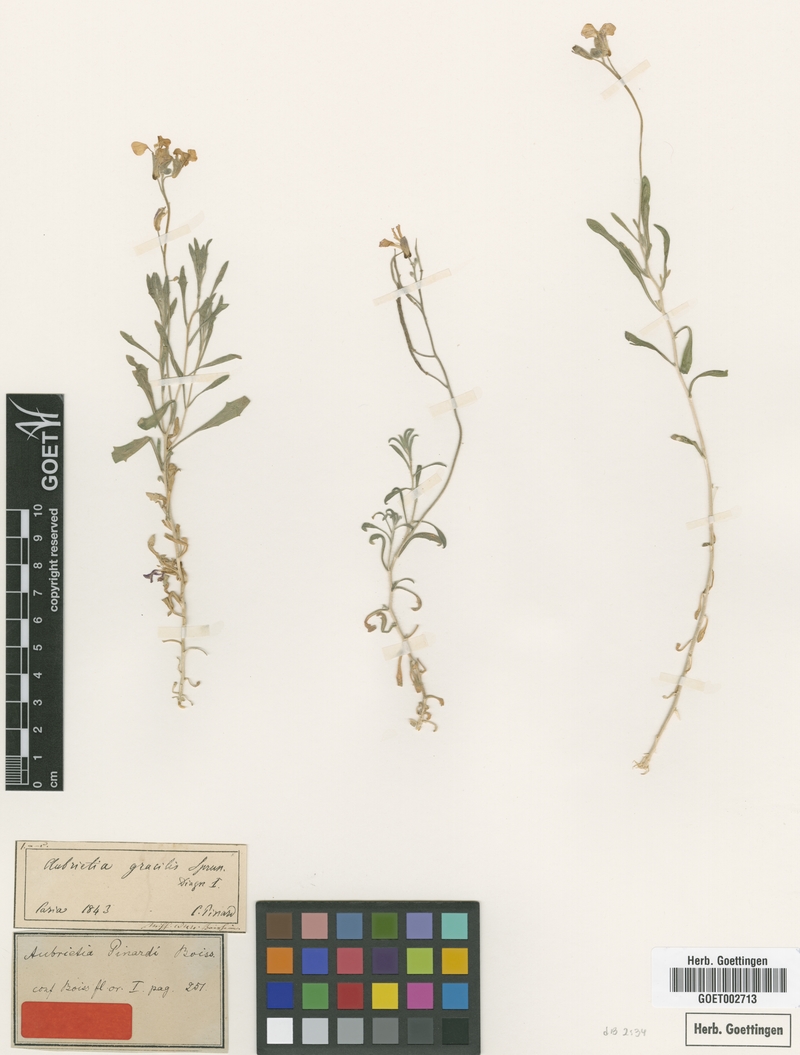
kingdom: Plantae
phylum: Tracheophyta
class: Magnoliopsida
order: Brassicales
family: Brassicaceae
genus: Aubrieta
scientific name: Aubrieta pinardii
